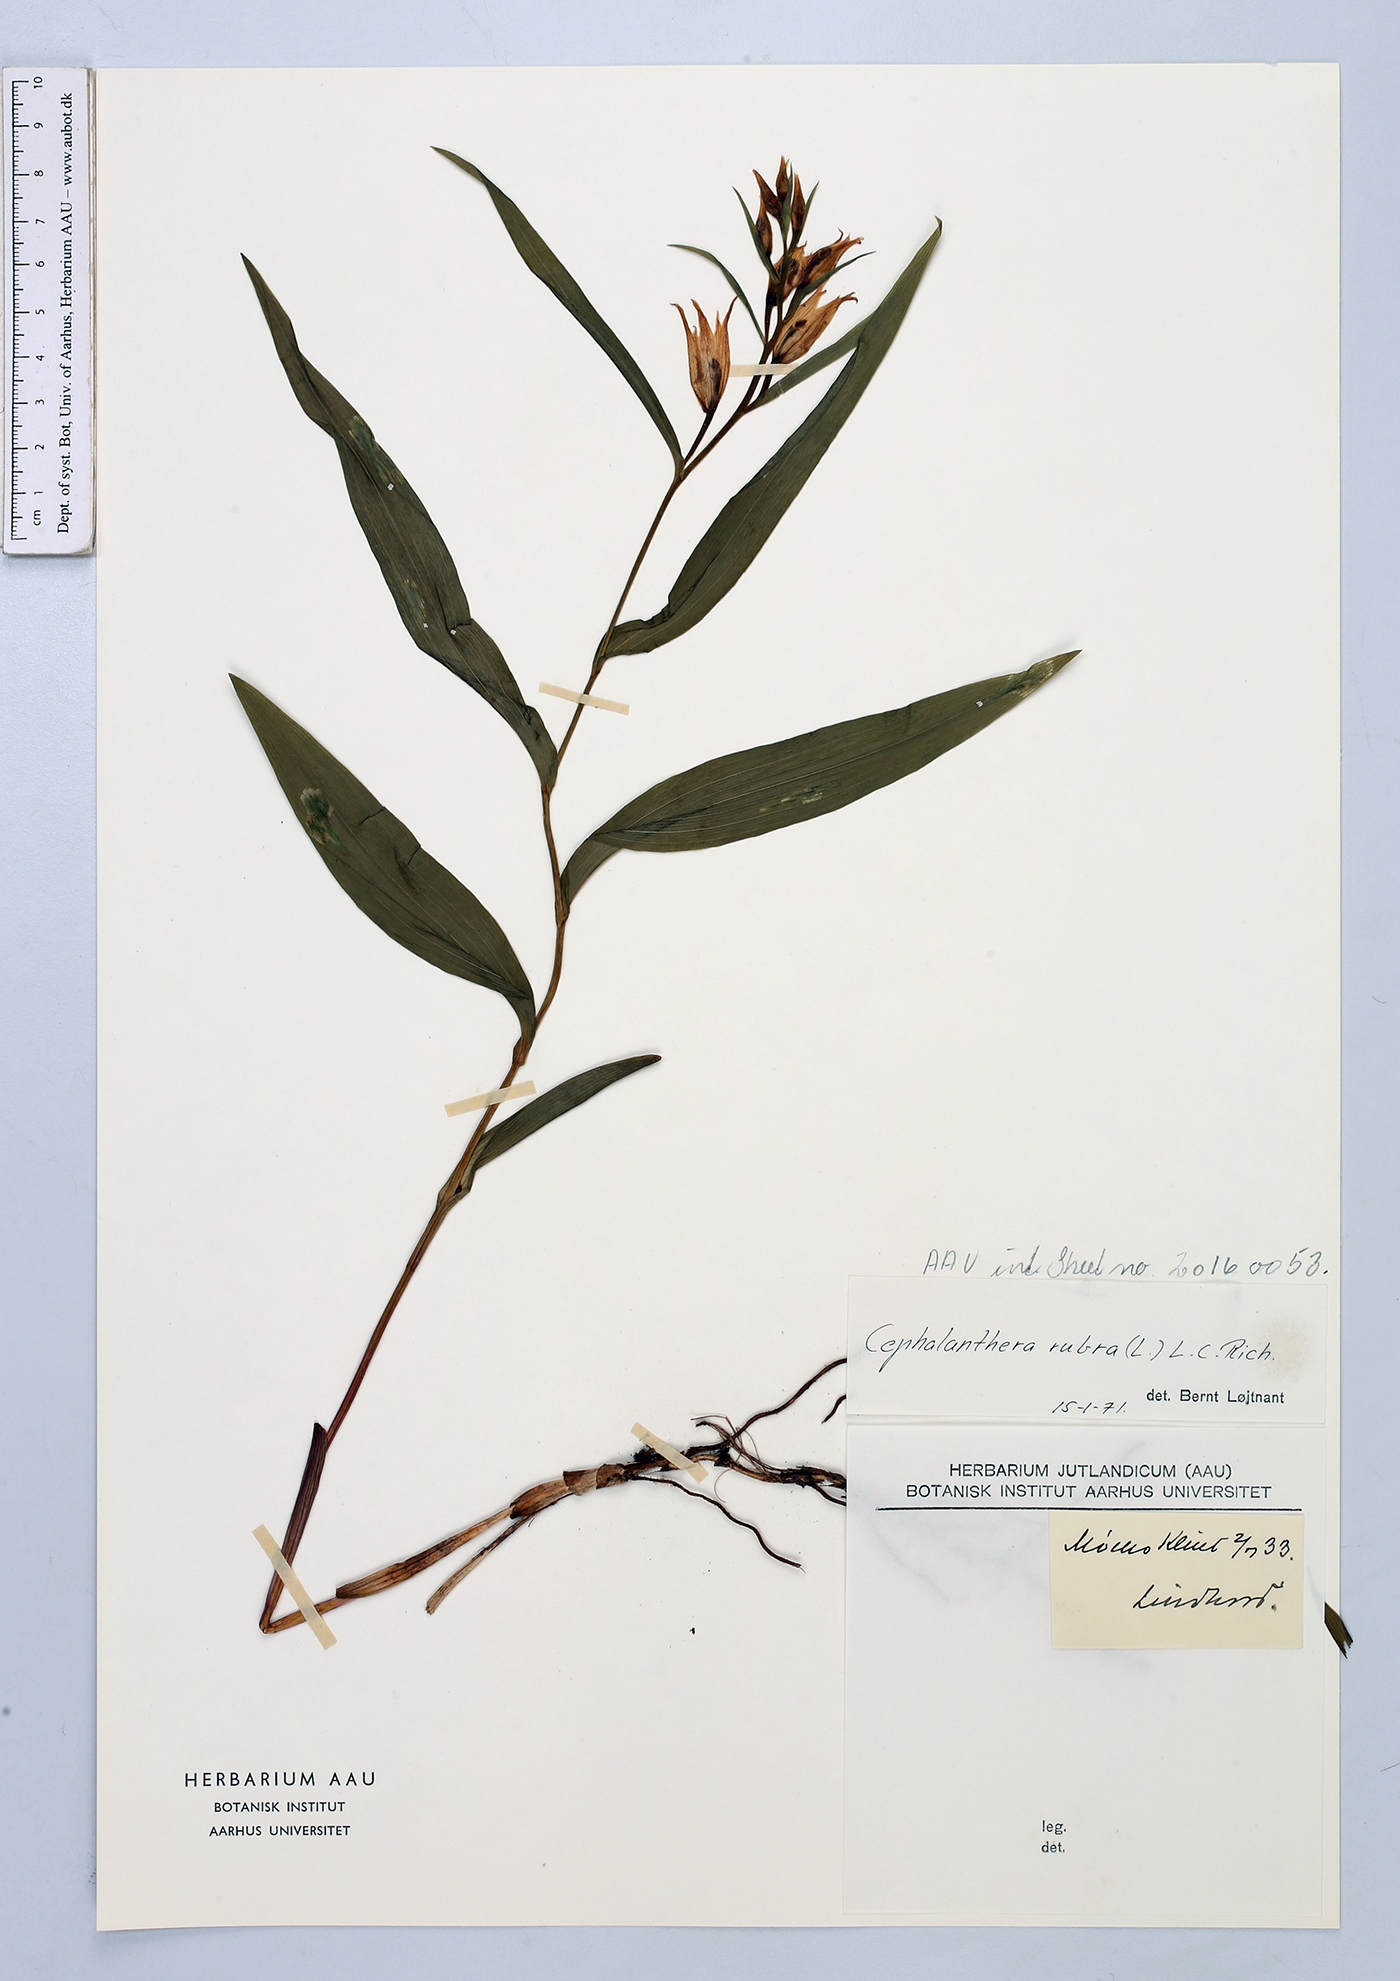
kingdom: Plantae
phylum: Tracheophyta
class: Liliopsida
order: Asparagales
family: Orchidaceae
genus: Cephalanthera
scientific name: Cephalanthera rubra
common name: Red helleborine
